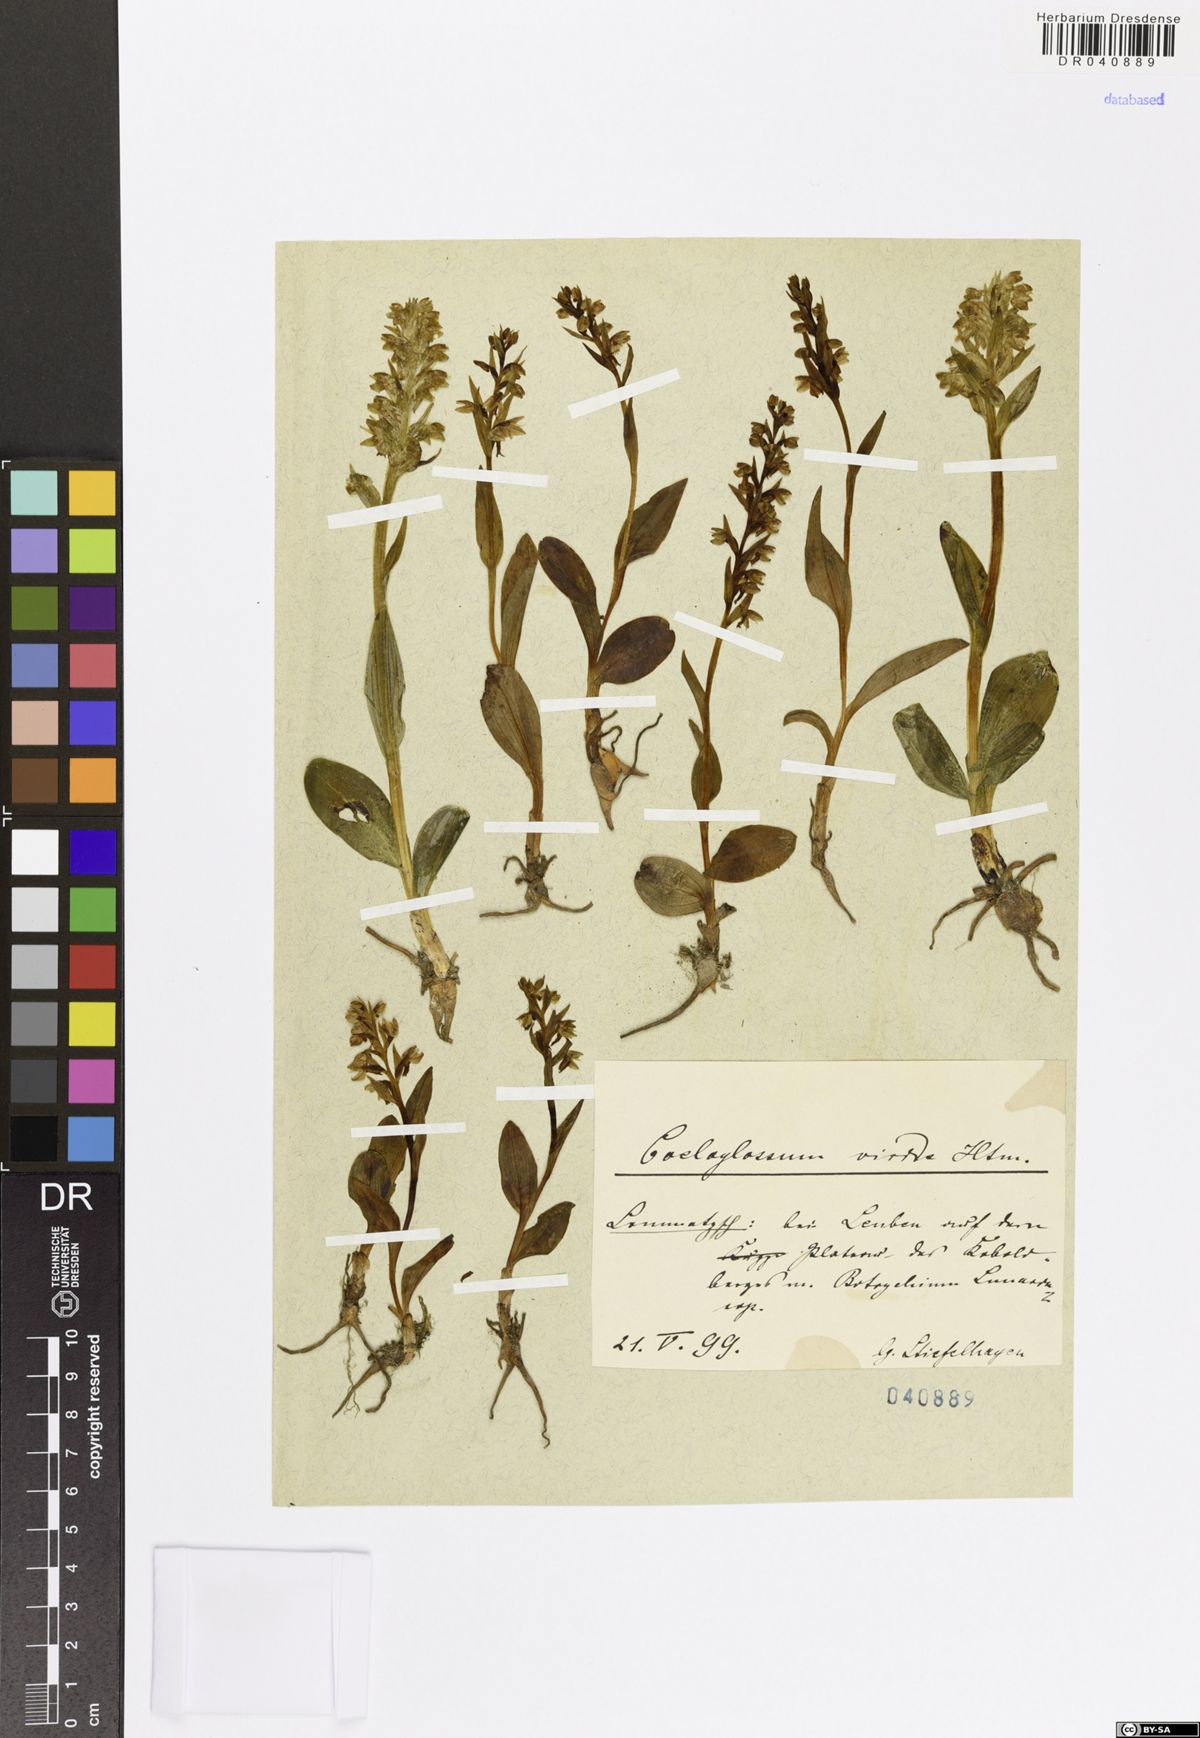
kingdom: Plantae
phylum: Tracheophyta
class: Liliopsida
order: Asparagales
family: Orchidaceae
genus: Dactylorhiza
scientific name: Dactylorhiza viridis
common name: Longbract frog orchid
